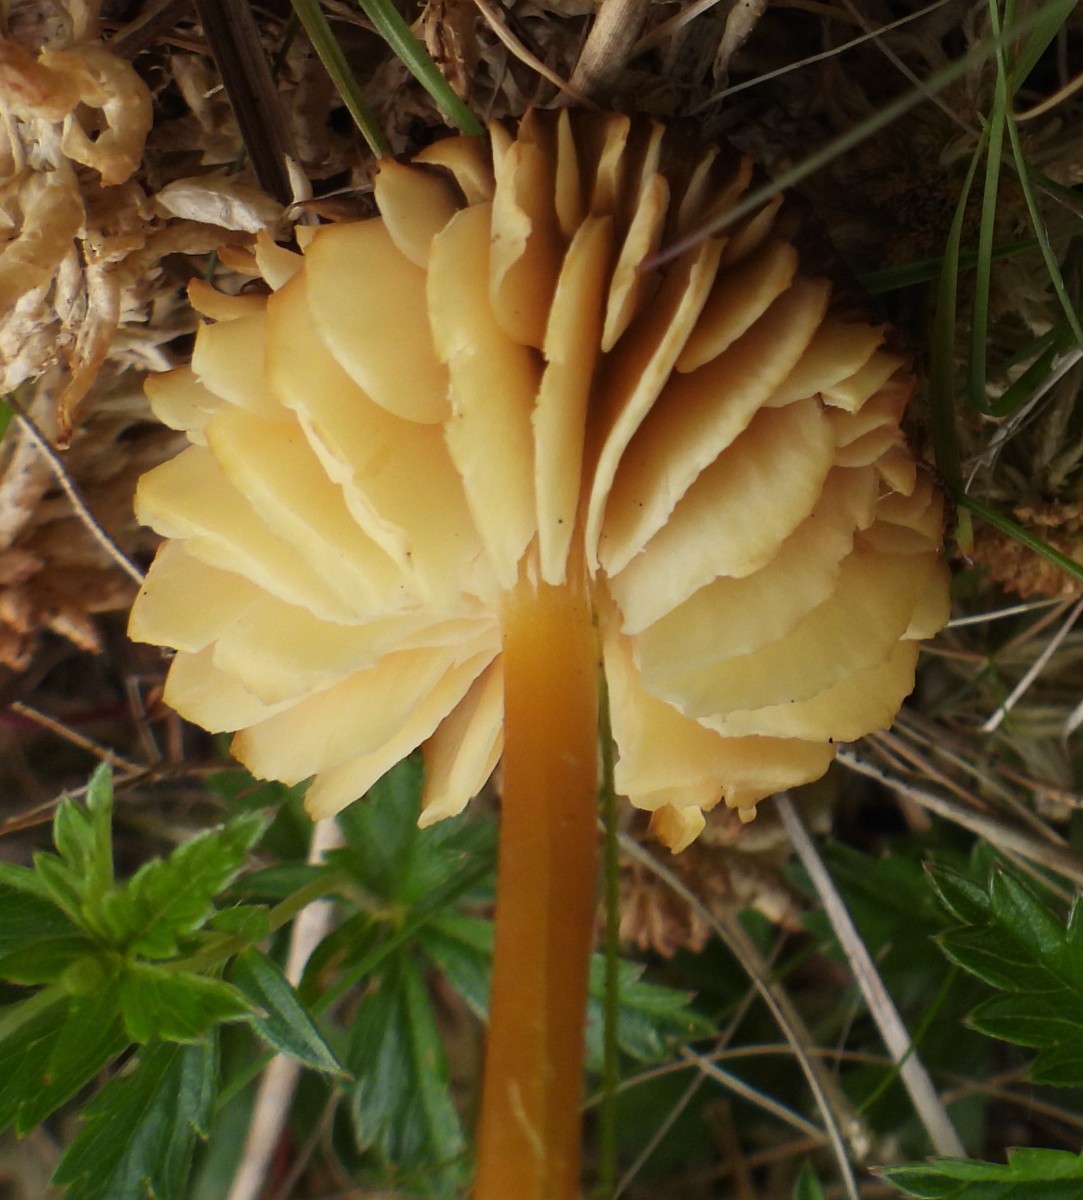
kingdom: Fungi
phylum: Basidiomycota
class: Agaricomycetes
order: Agaricales
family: Hygrophoraceae
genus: Hygrocybe
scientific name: Hygrocybe
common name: vokshat
